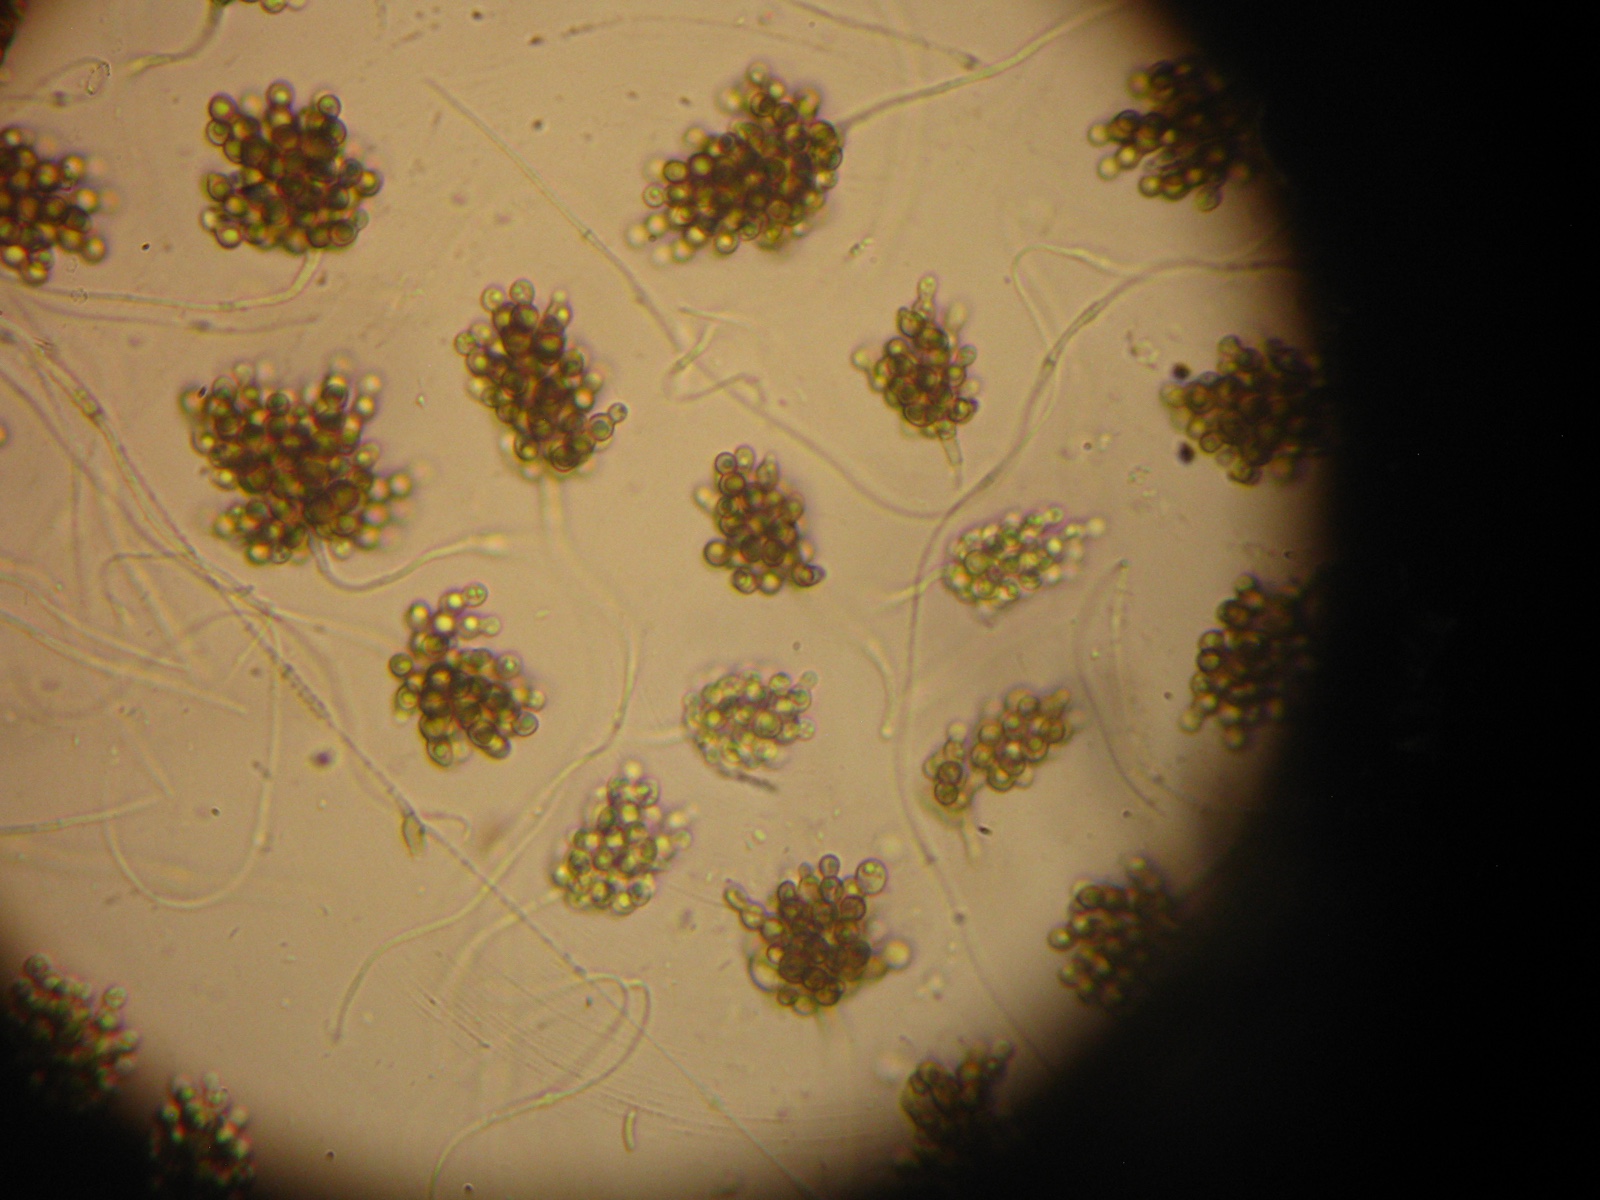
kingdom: Fungi
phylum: Ascomycota
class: Leotiomycetes
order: Helotiales
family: Mollisiaceae
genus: Cheirospora
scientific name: Cheirospora botryospora
